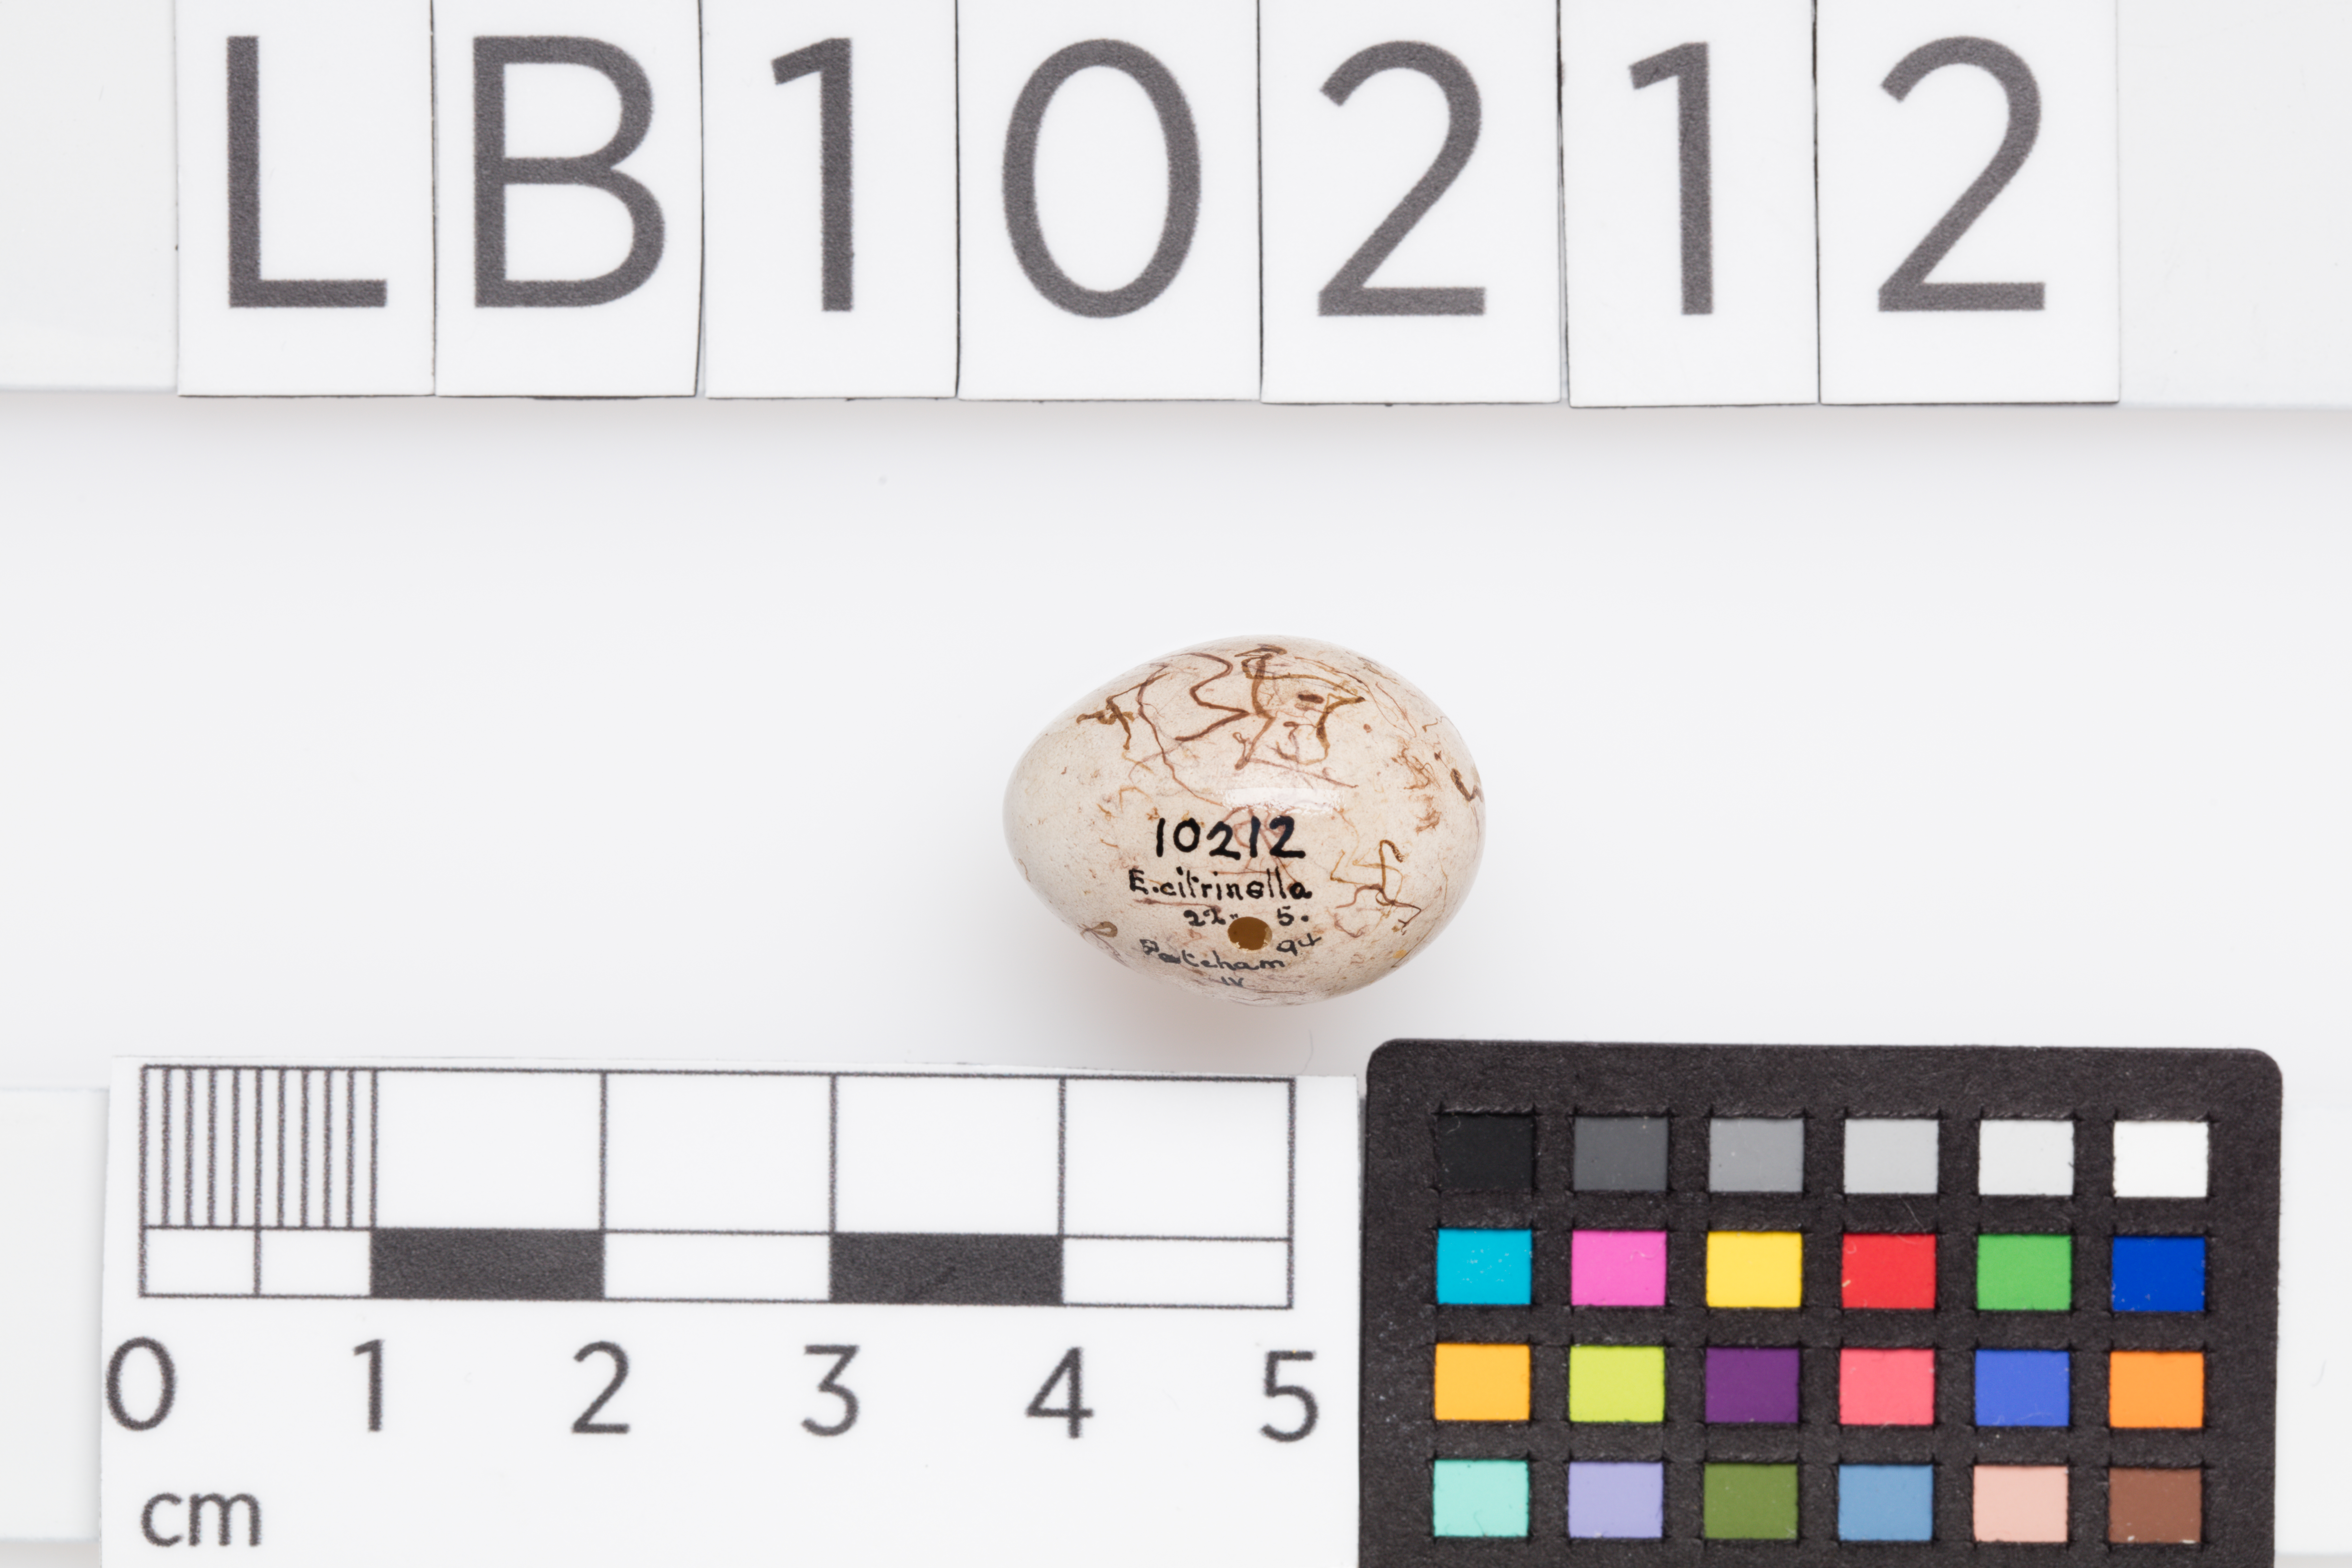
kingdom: Animalia
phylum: Chordata
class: Aves
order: Passeriformes
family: Emberizidae
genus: Emberiza
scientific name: Emberiza citrinella
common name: Yellowhammer
